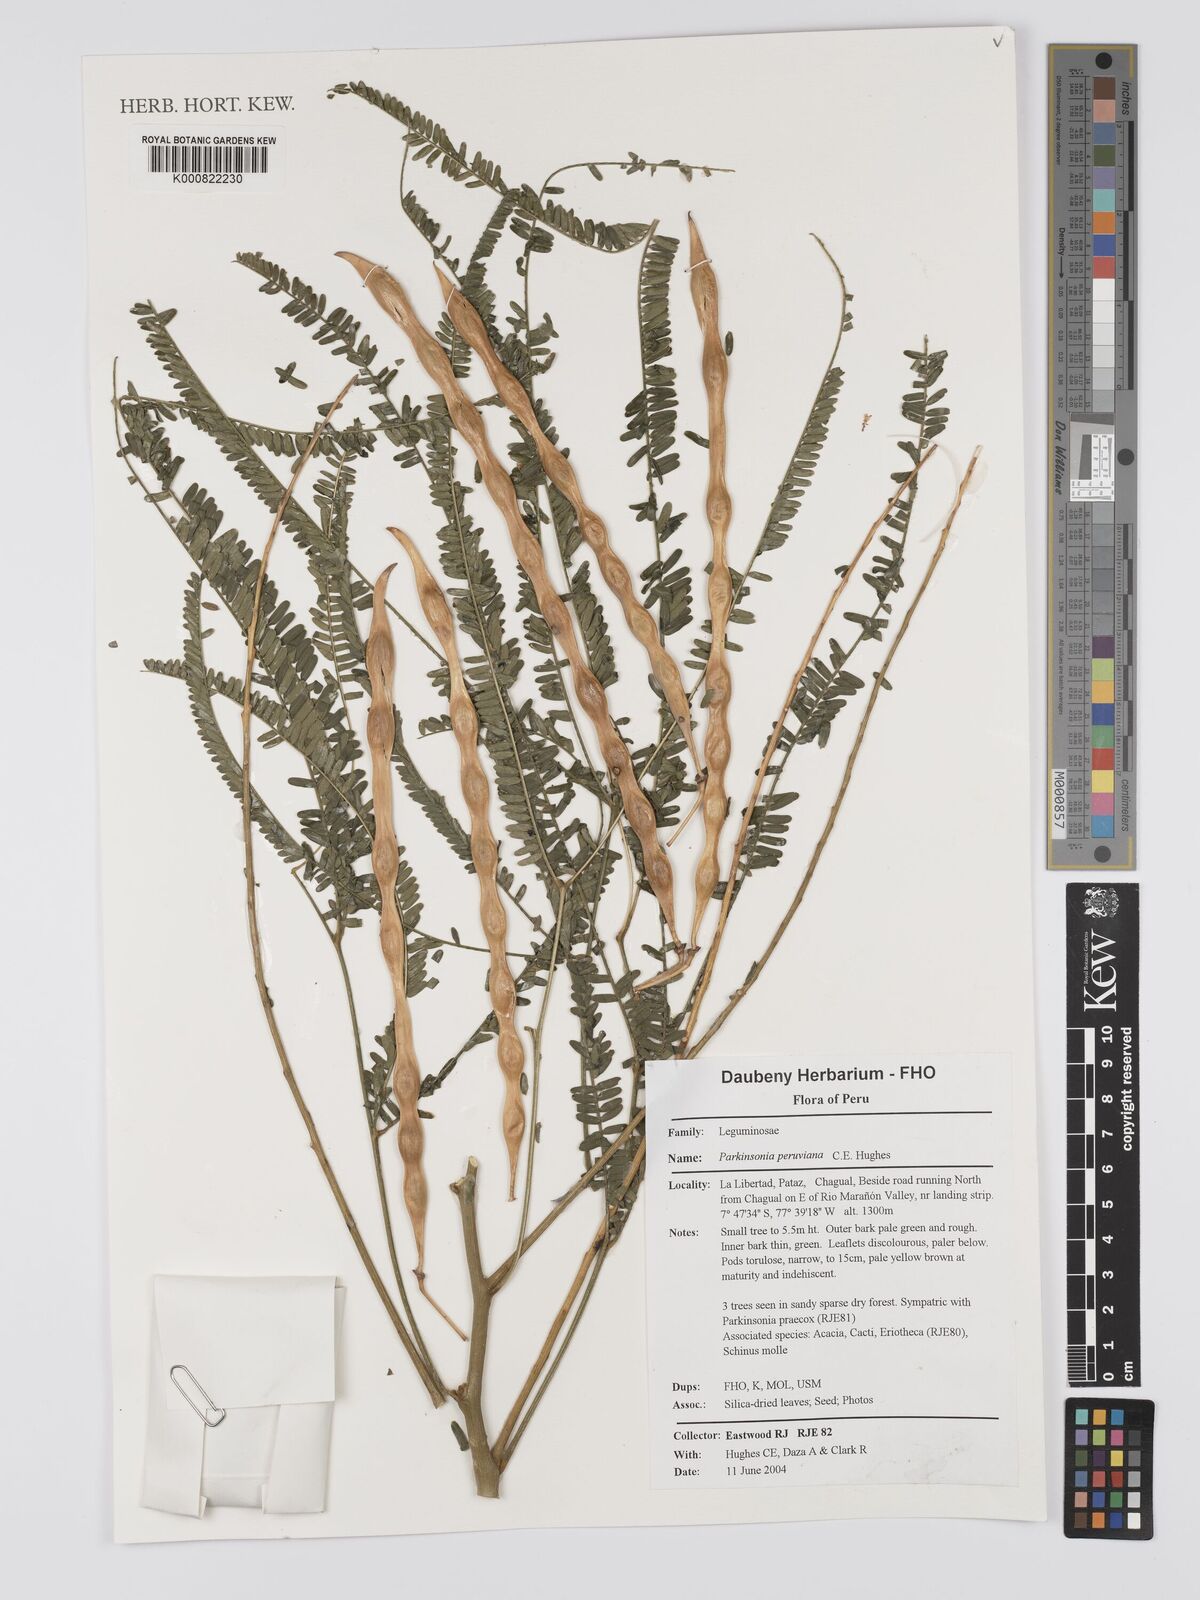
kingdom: Plantae
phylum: Tracheophyta
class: Magnoliopsida
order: Fabales
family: Fabaceae
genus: Parkinsonia
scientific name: Parkinsonia peruviana
